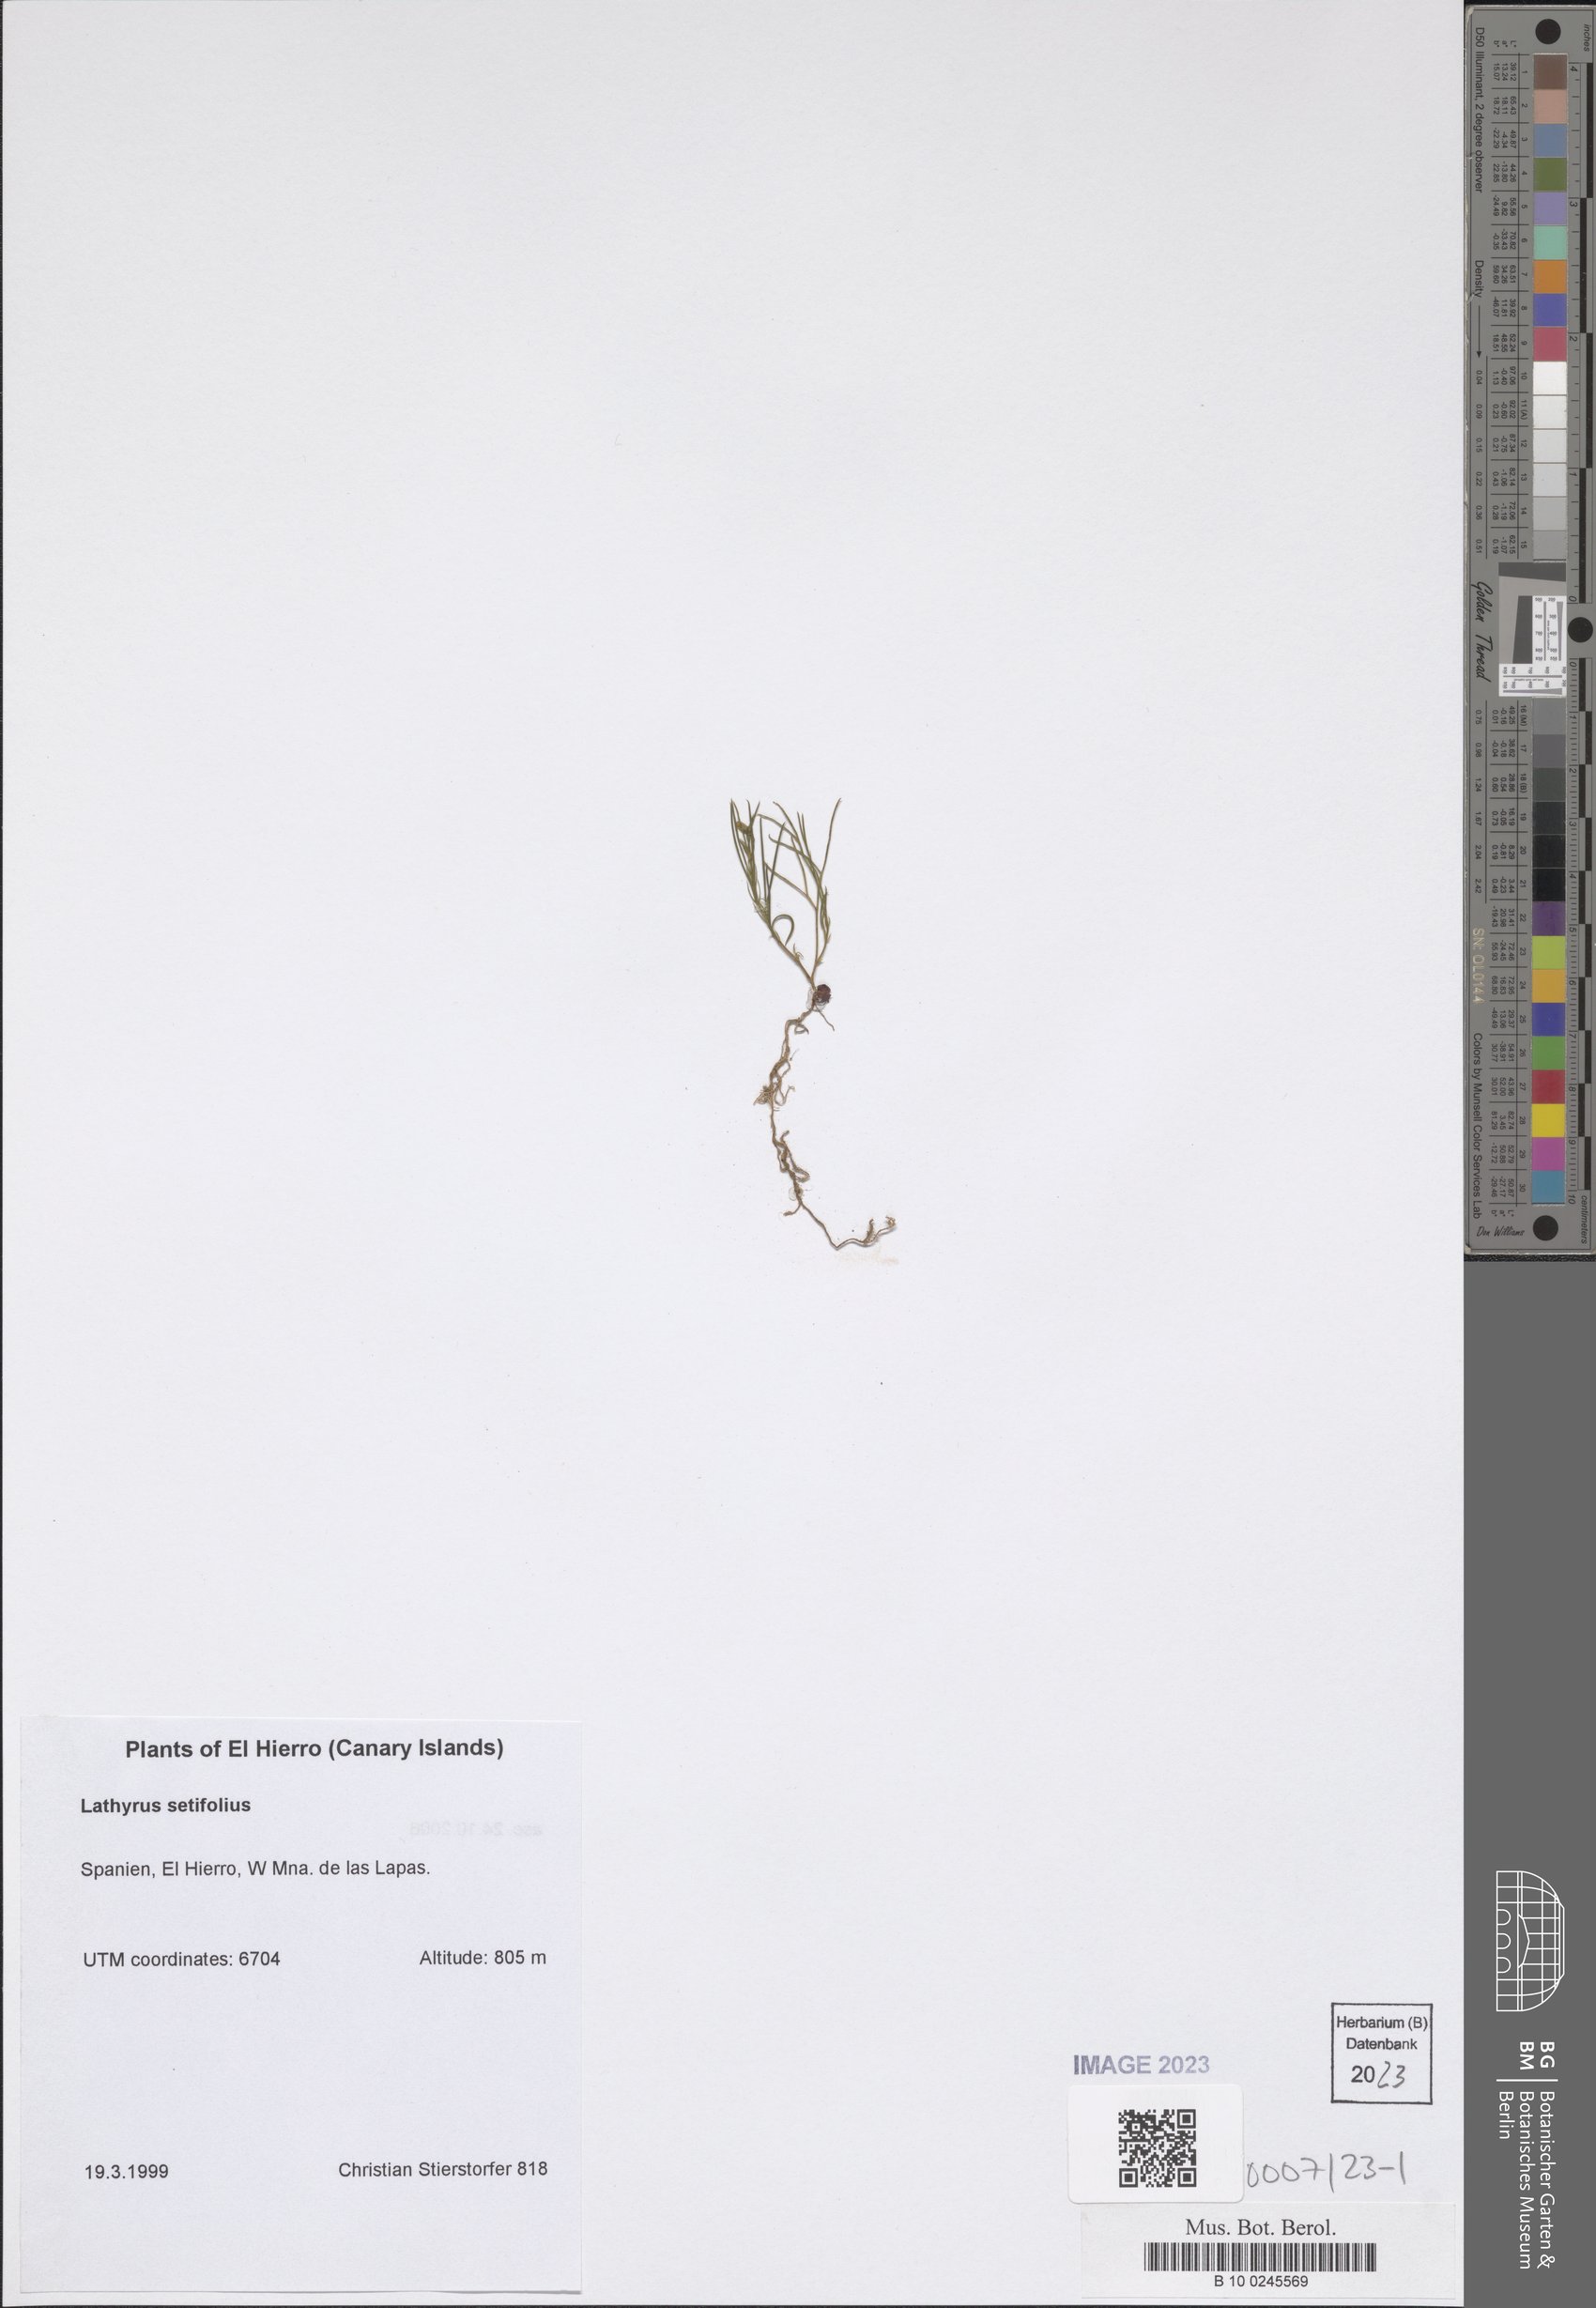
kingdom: Plantae
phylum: Tracheophyta
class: Magnoliopsida
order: Fabales
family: Fabaceae
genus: Lathyrus
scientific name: Lathyrus setifolius
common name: Brown vetchling
